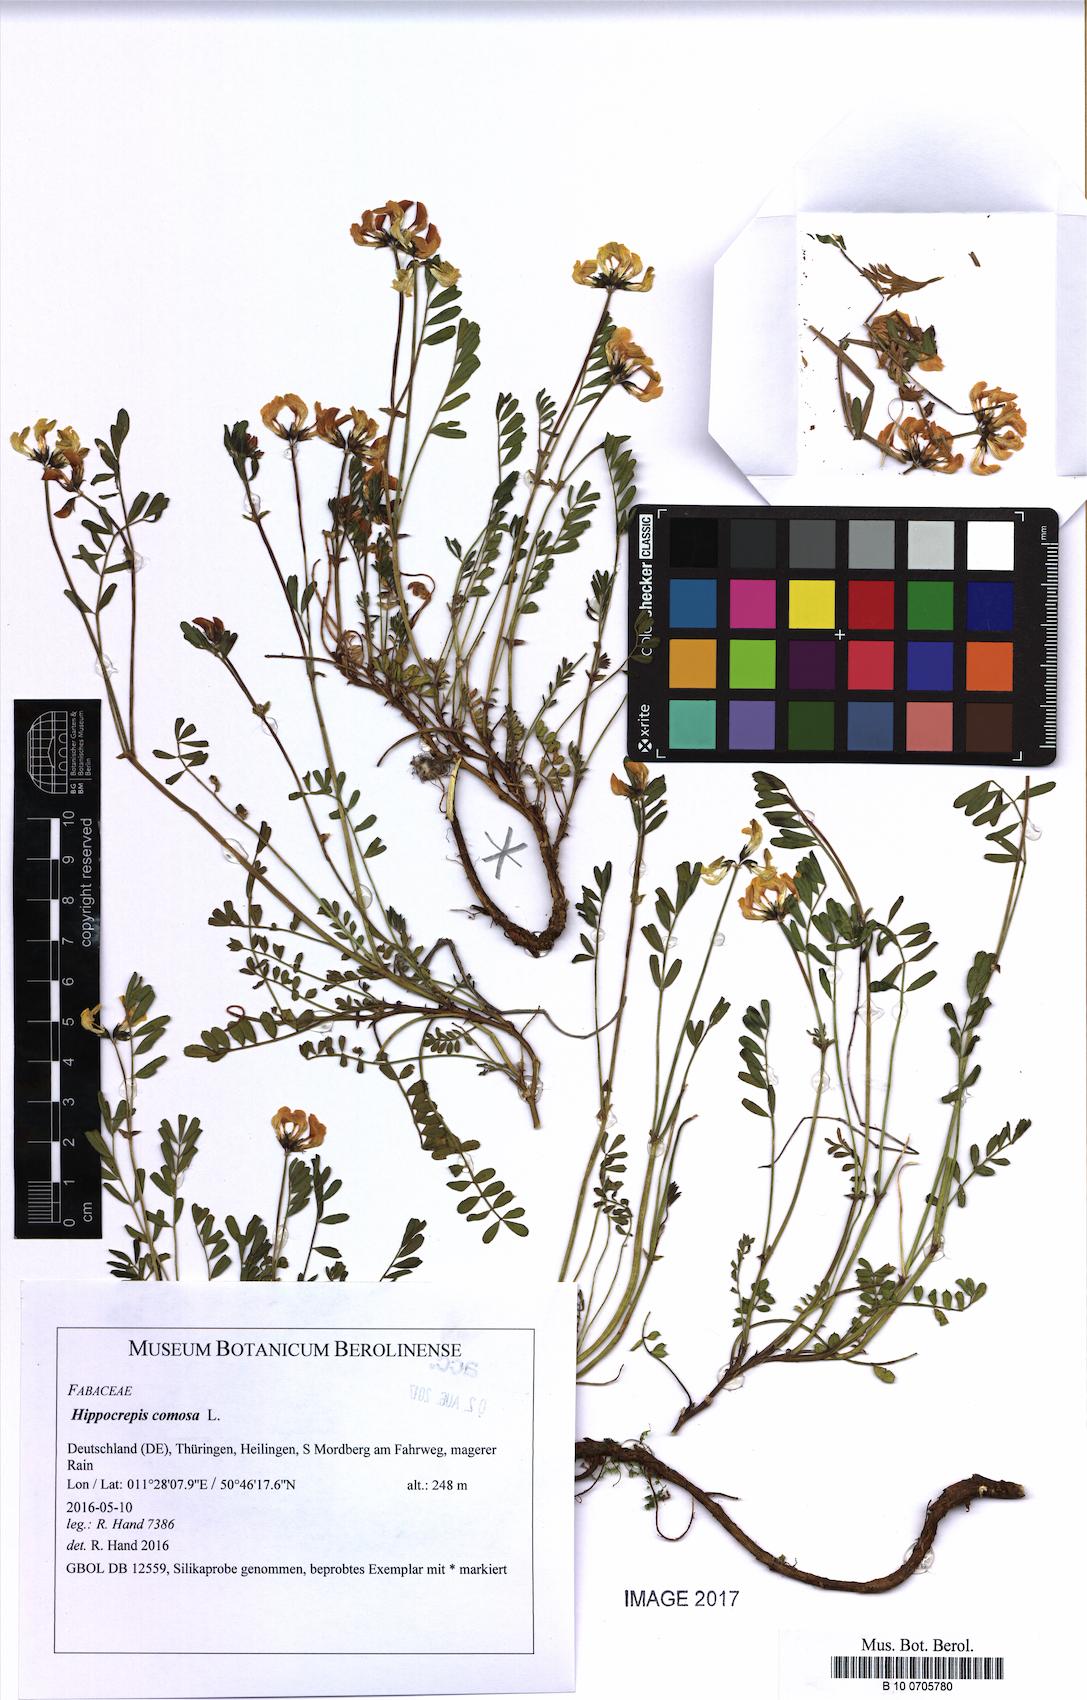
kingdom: Plantae
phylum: Tracheophyta
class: Magnoliopsida
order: Fabales
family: Fabaceae
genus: Hippocrepis
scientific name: Hippocrepis comosa
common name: Horseshoe vetch
